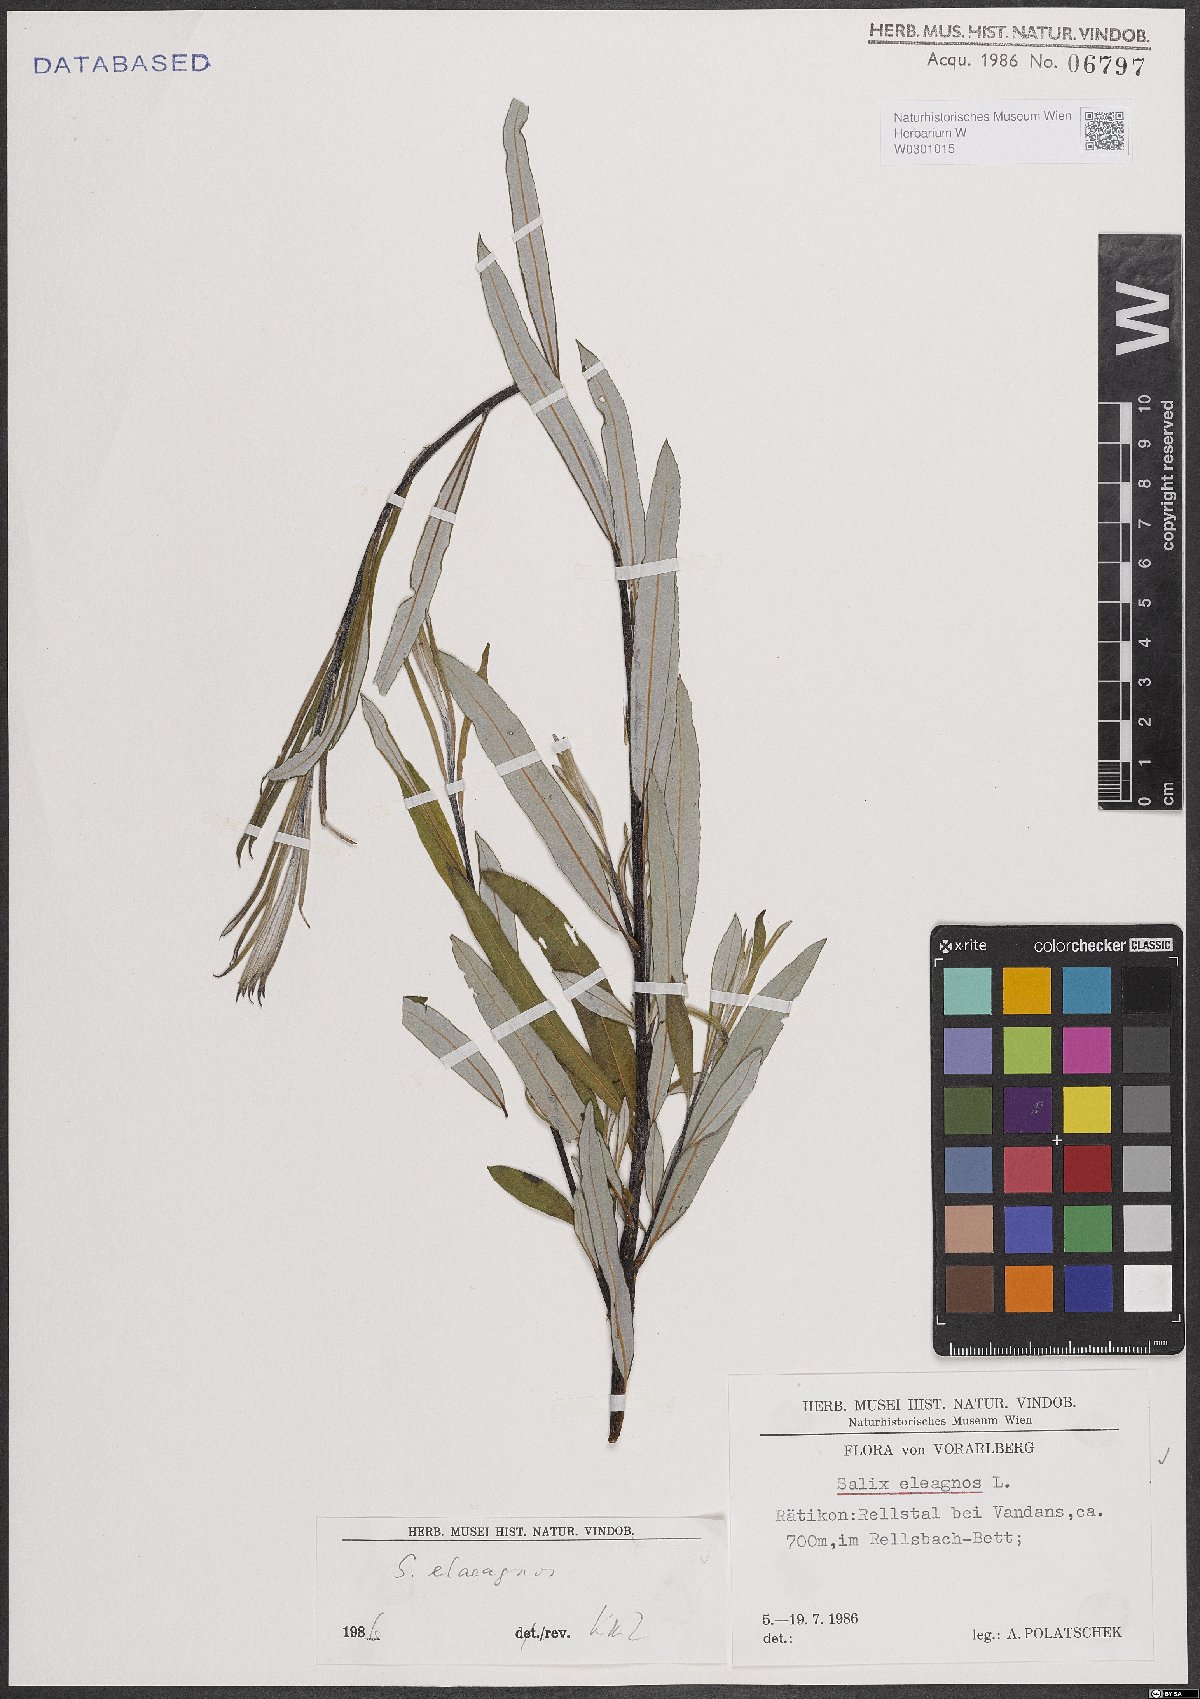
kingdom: Plantae
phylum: Tracheophyta
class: Magnoliopsida
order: Malpighiales
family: Salicaceae
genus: Salix
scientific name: Salix eleagnos
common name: Elaeagnus willow
